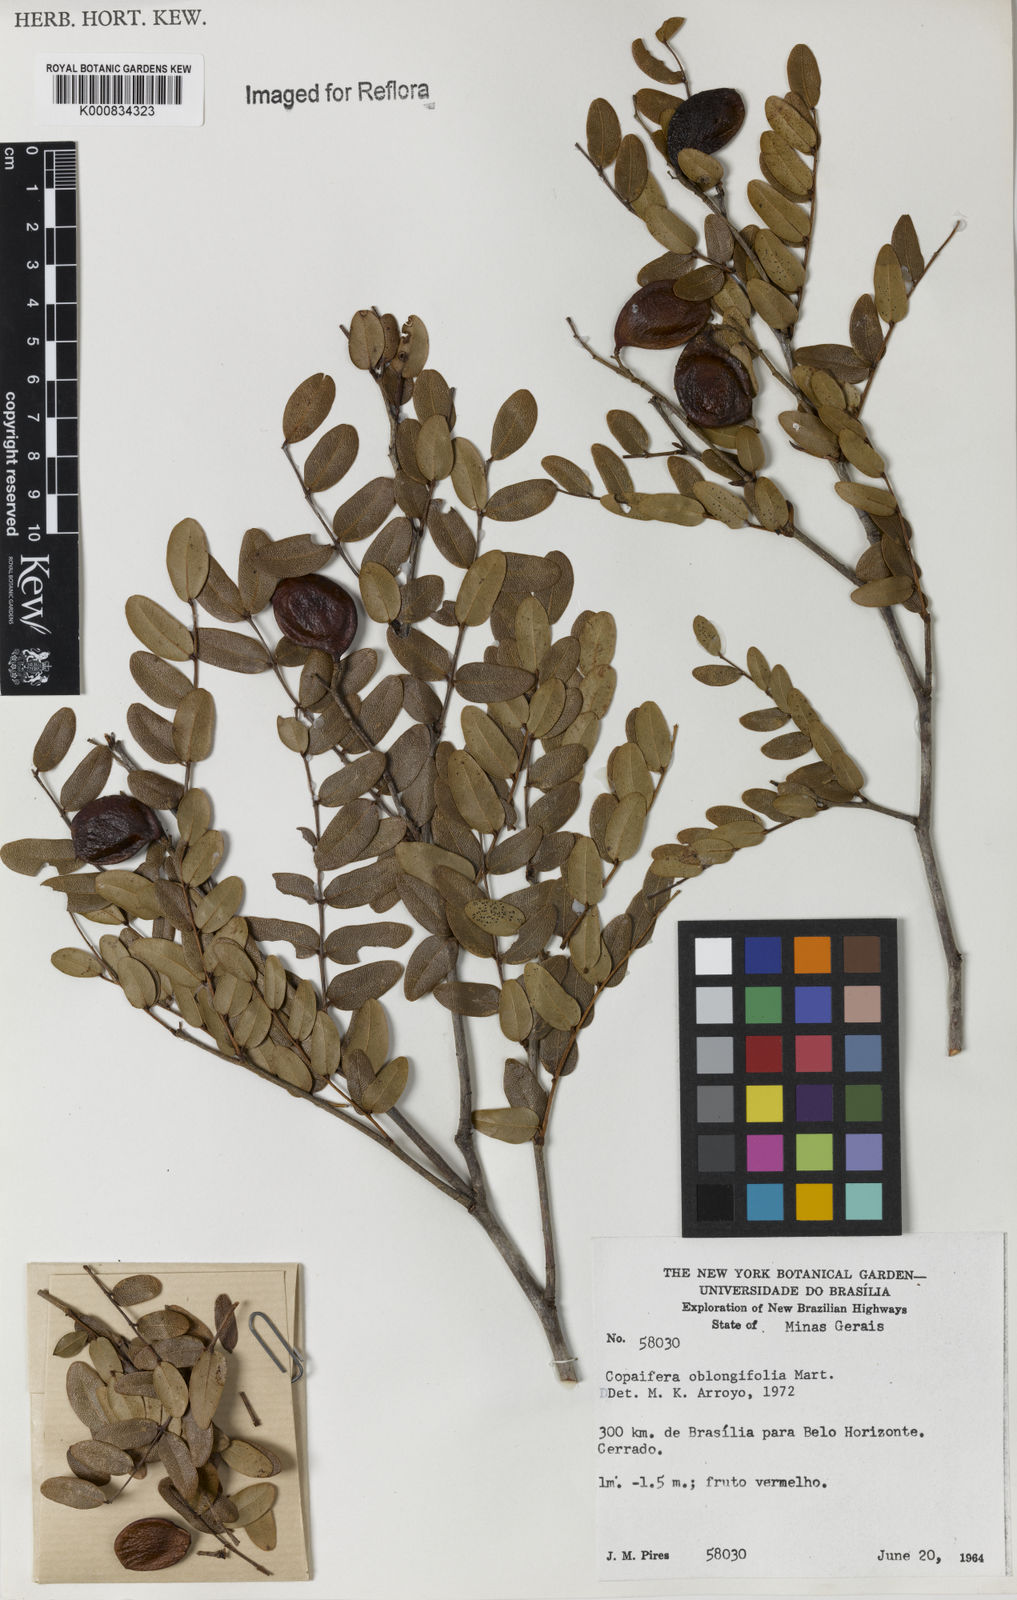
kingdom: Plantae
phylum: Tracheophyta
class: Magnoliopsida
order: Fabales
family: Fabaceae
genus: Copaifera
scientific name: Copaifera
